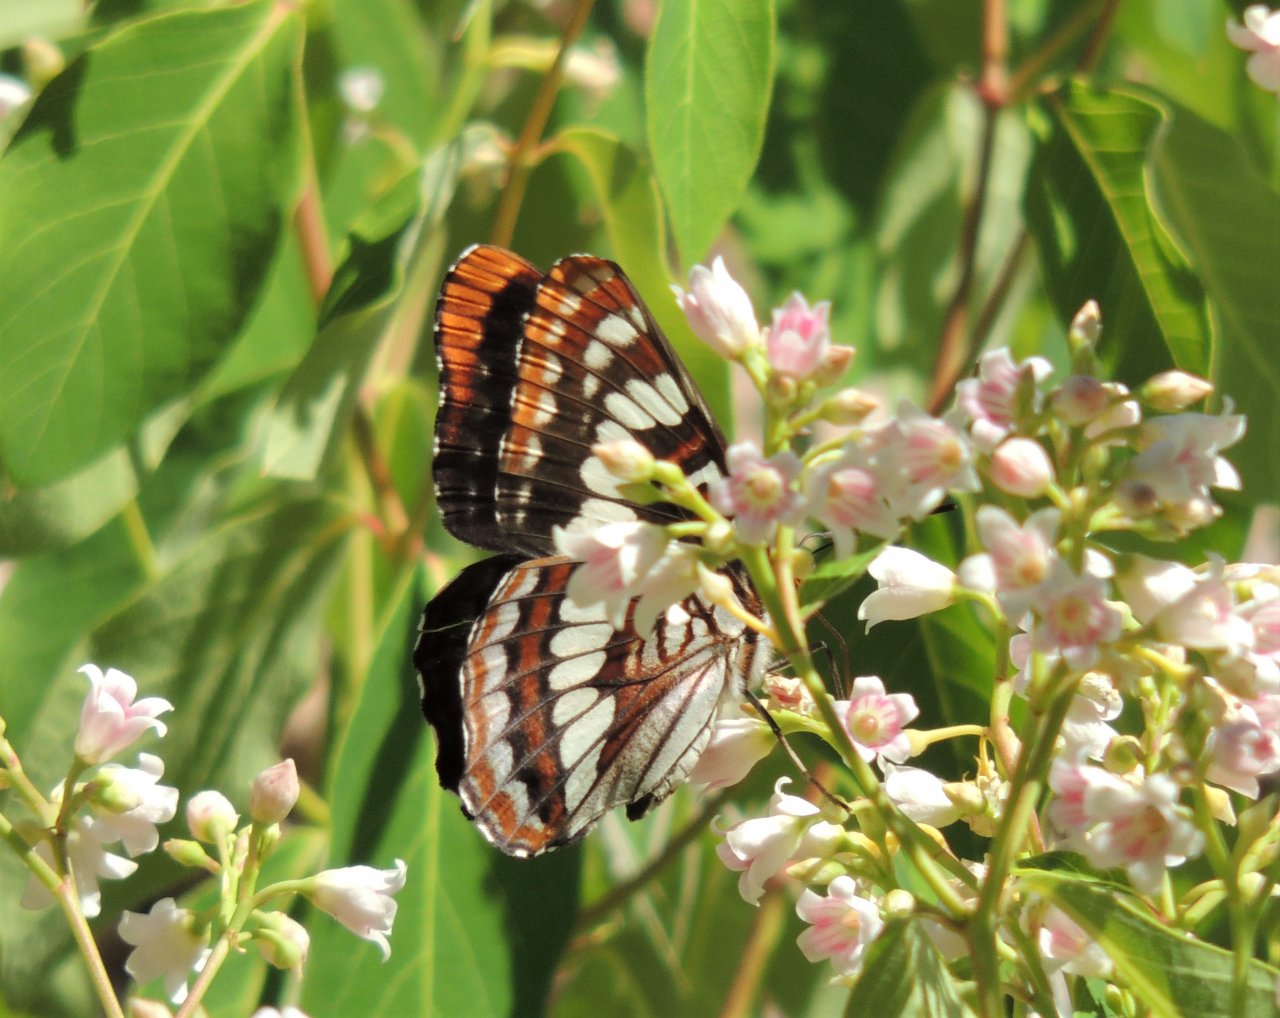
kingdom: Animalia
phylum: Arthropoda
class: Insecta
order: Lepidoptera
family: Nymphalidae
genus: Limenitis
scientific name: Limenitis lorquini
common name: Lorquin's Admiral
